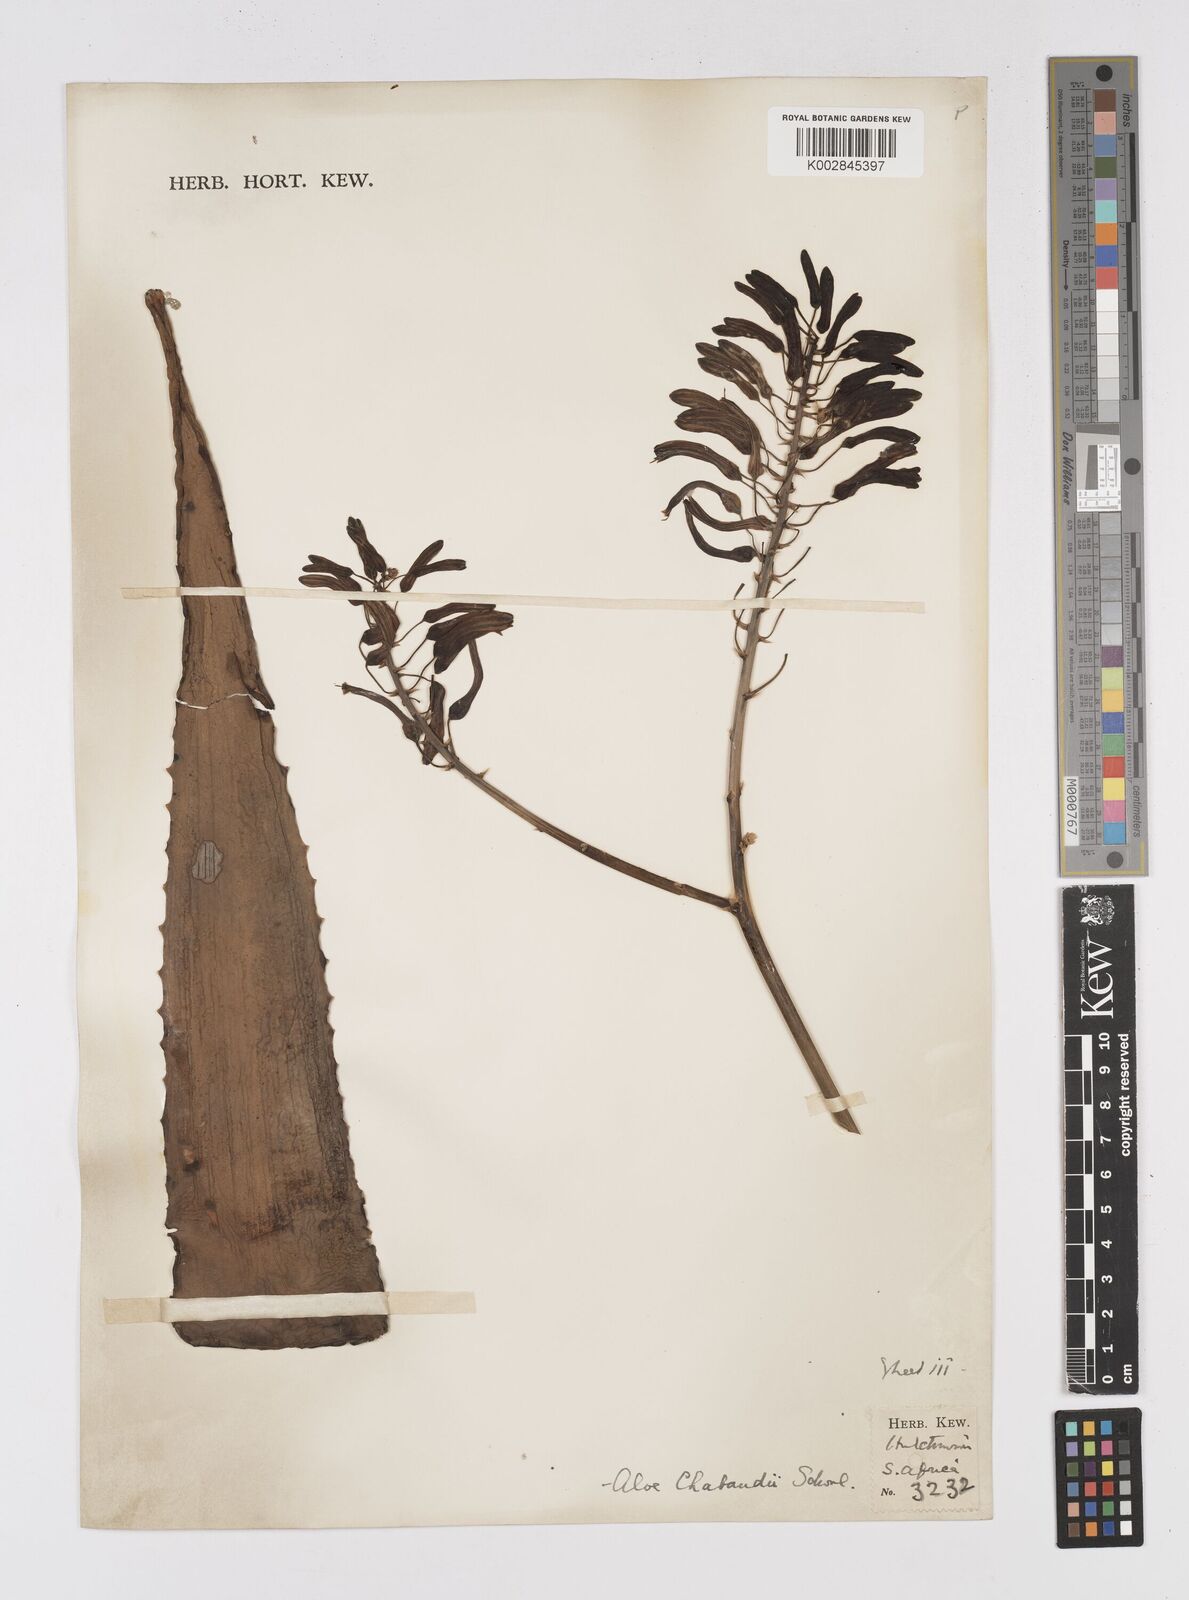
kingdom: Plantae
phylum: Tracheophyta
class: Liliopsida
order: Asparagales
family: Asphodelaceae
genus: Aloe
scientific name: Aloe chabaudii
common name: Chabaud's aloe
